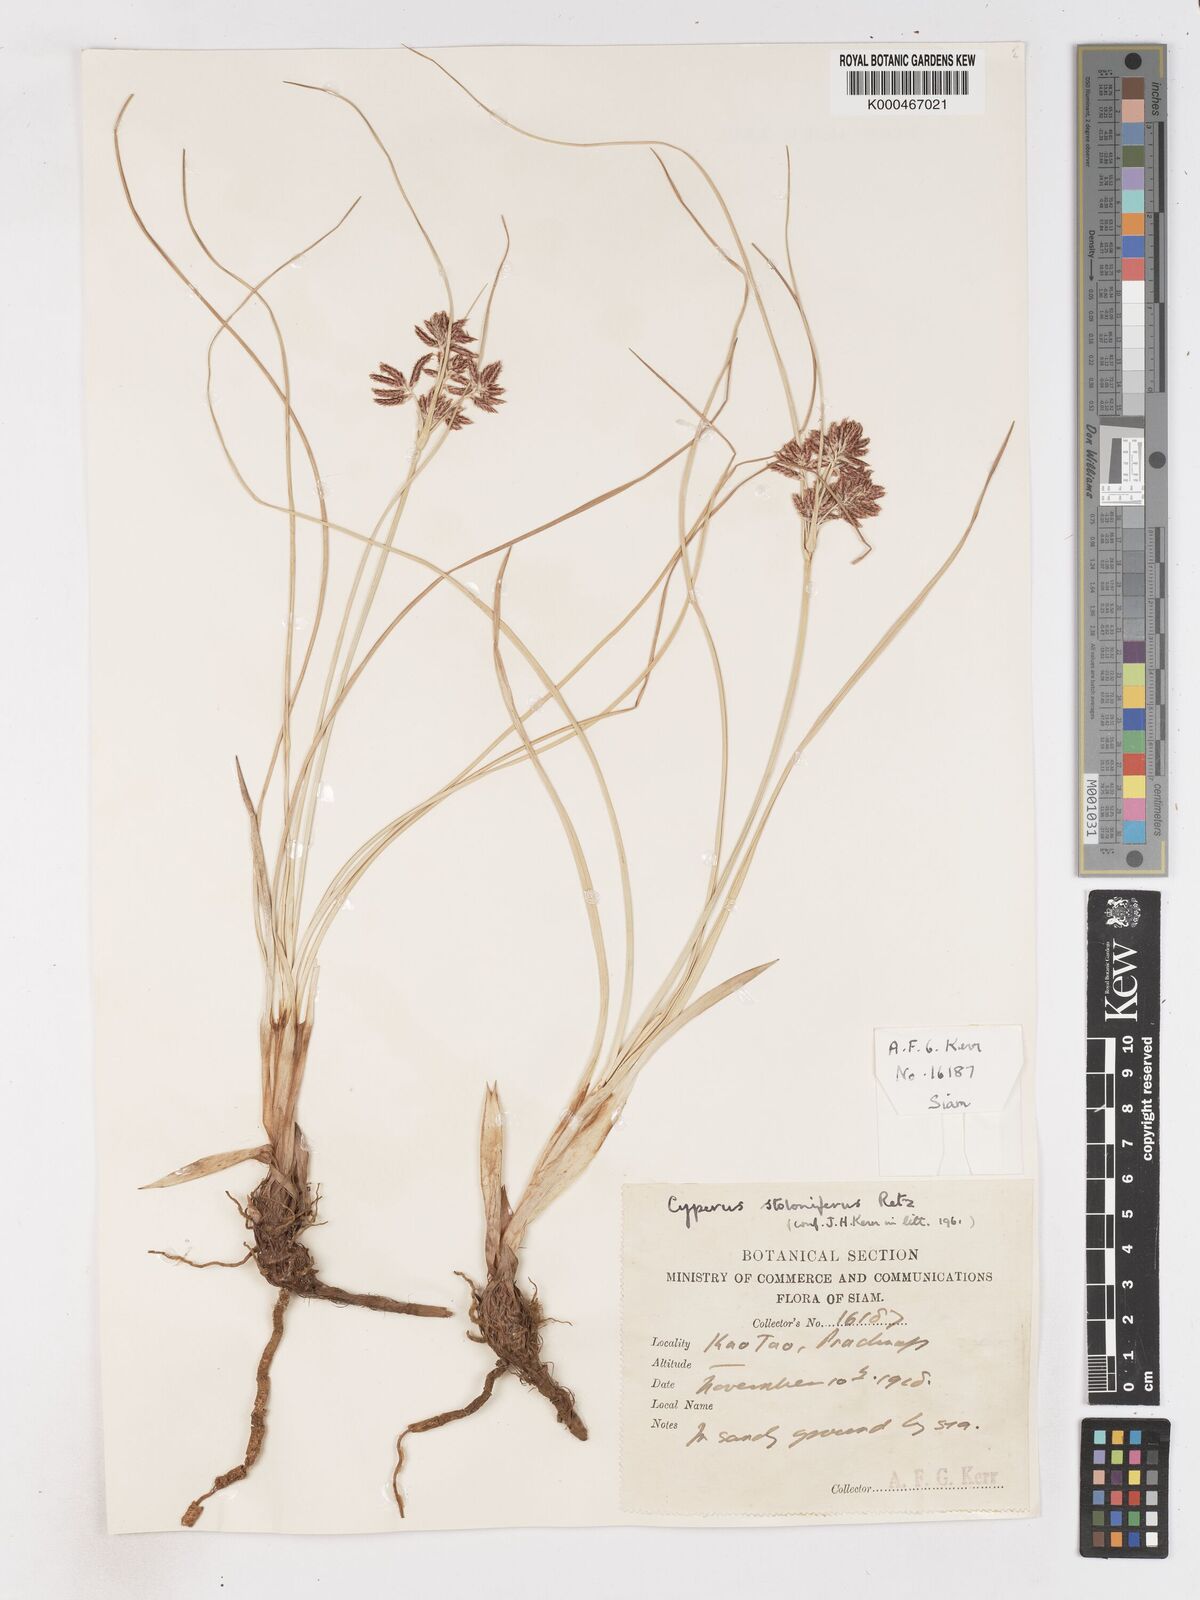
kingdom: Plantae
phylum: Tracheophyta
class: Liliopsida
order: Poales
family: Cyperaceae
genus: Cyperus
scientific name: Cyperus
